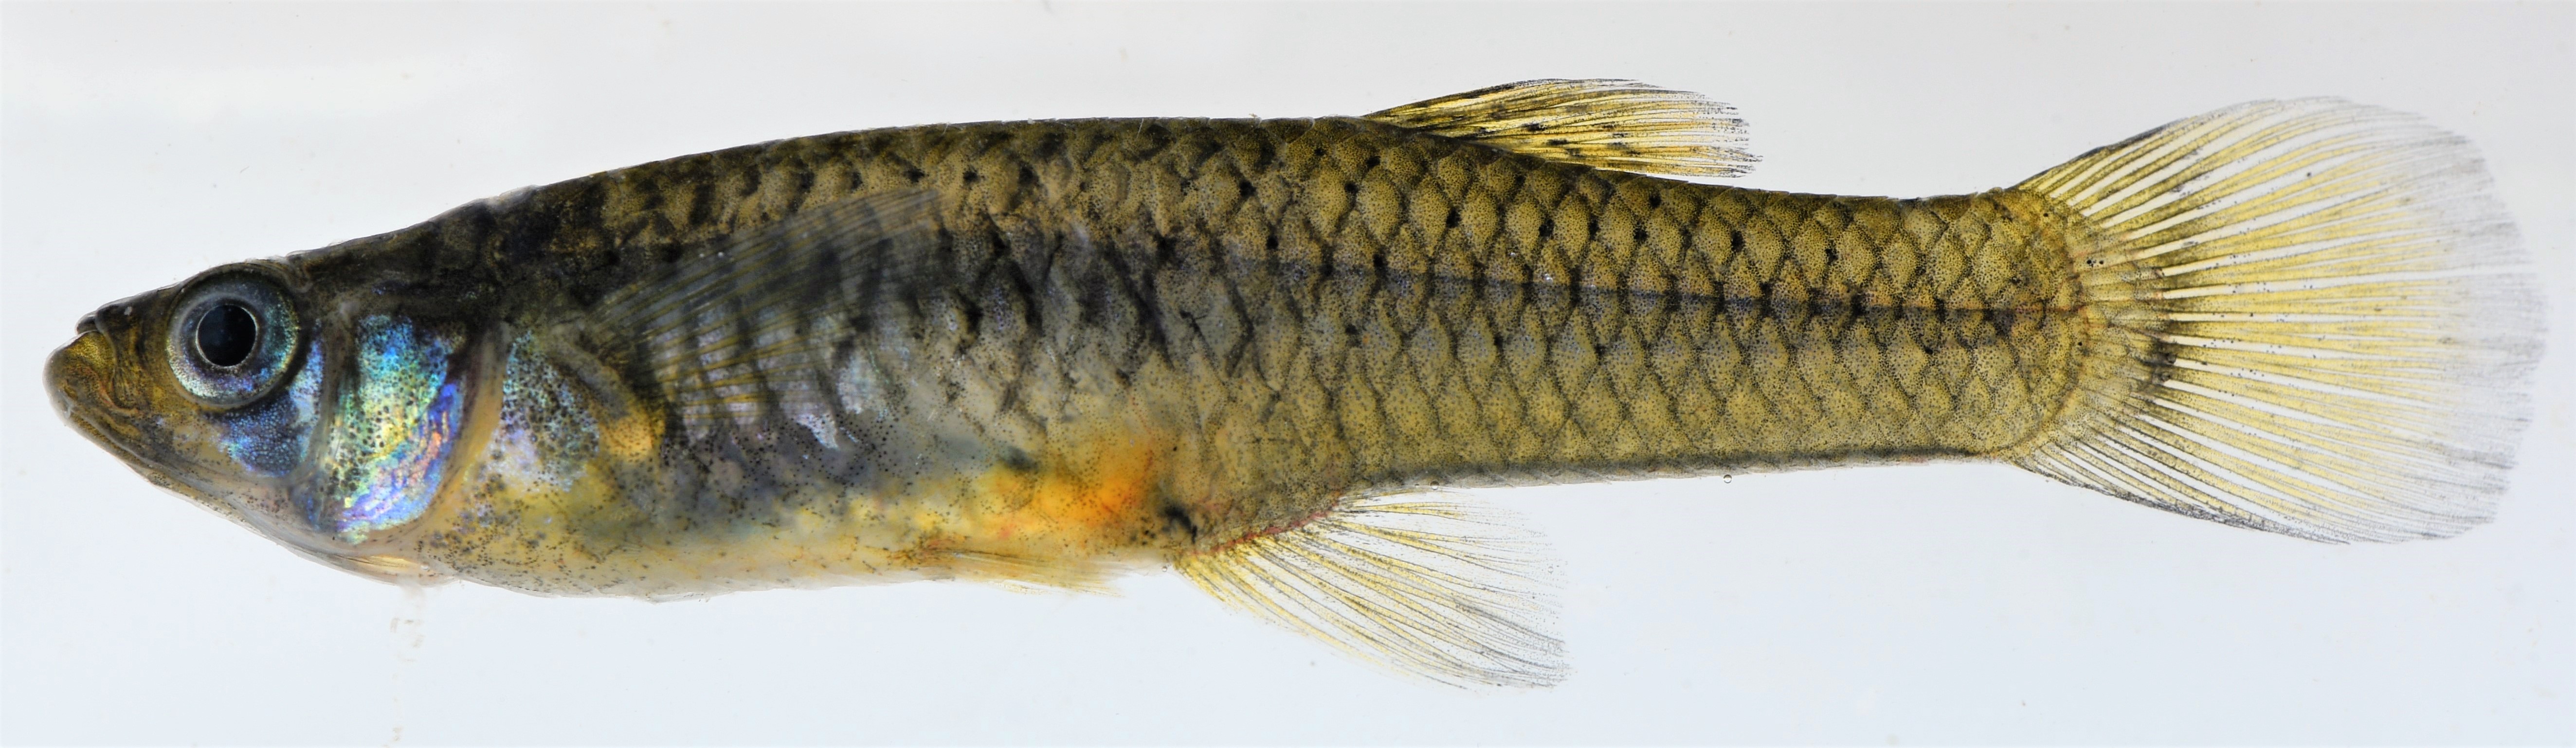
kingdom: Animalia
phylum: Chordata
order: Cyprinodontiformes
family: Poeciliidae
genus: Gambusia
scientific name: Gambusia affinis
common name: Mosquitofish
